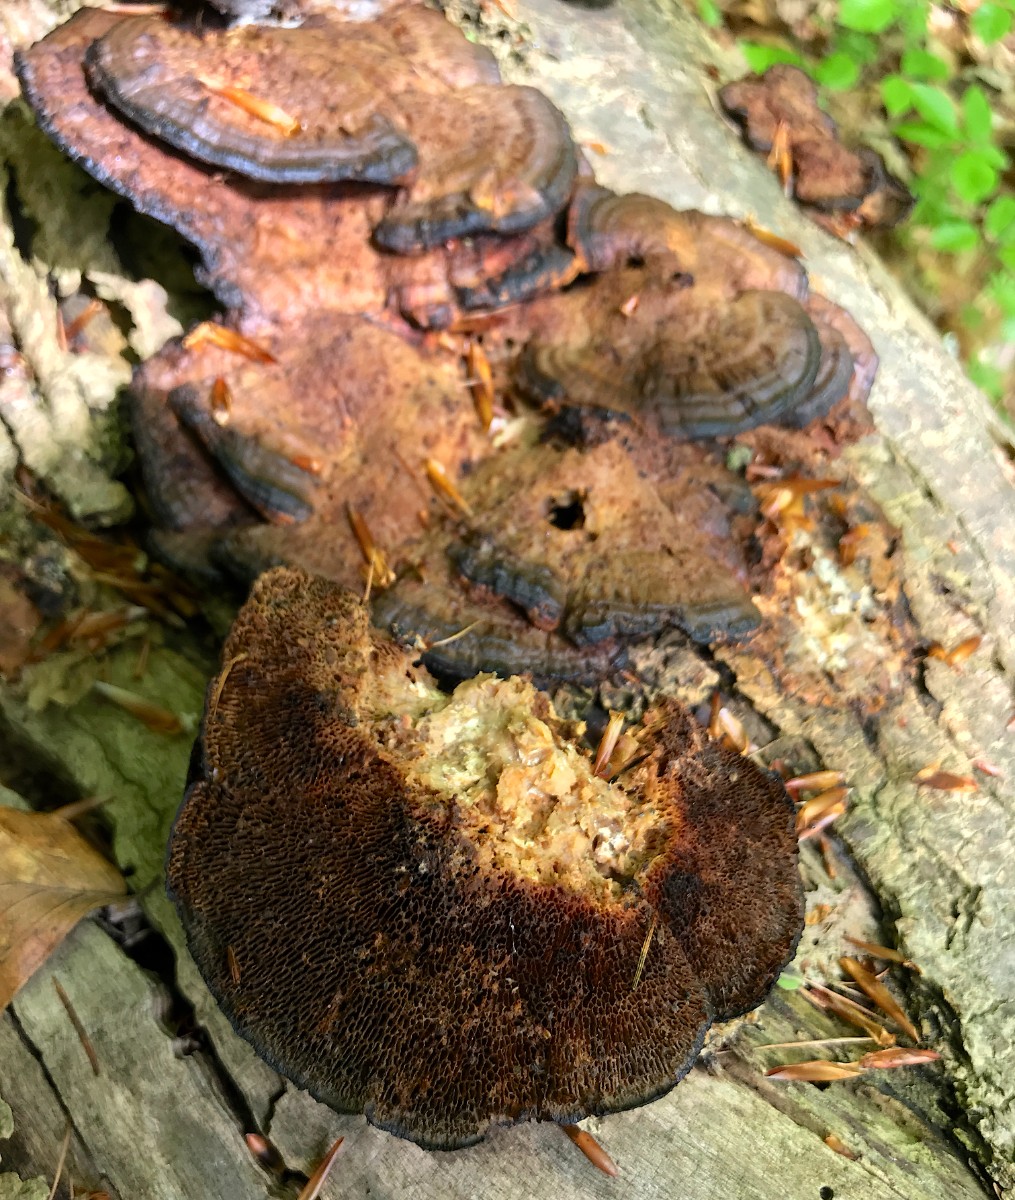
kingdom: Fungi
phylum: Basidiomycota
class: Agaricomycetes
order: Polyporales
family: Polyporaceae
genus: Daedaleopsis
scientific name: Daedaleopsis confragosa
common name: rødmende læderporesvamp
